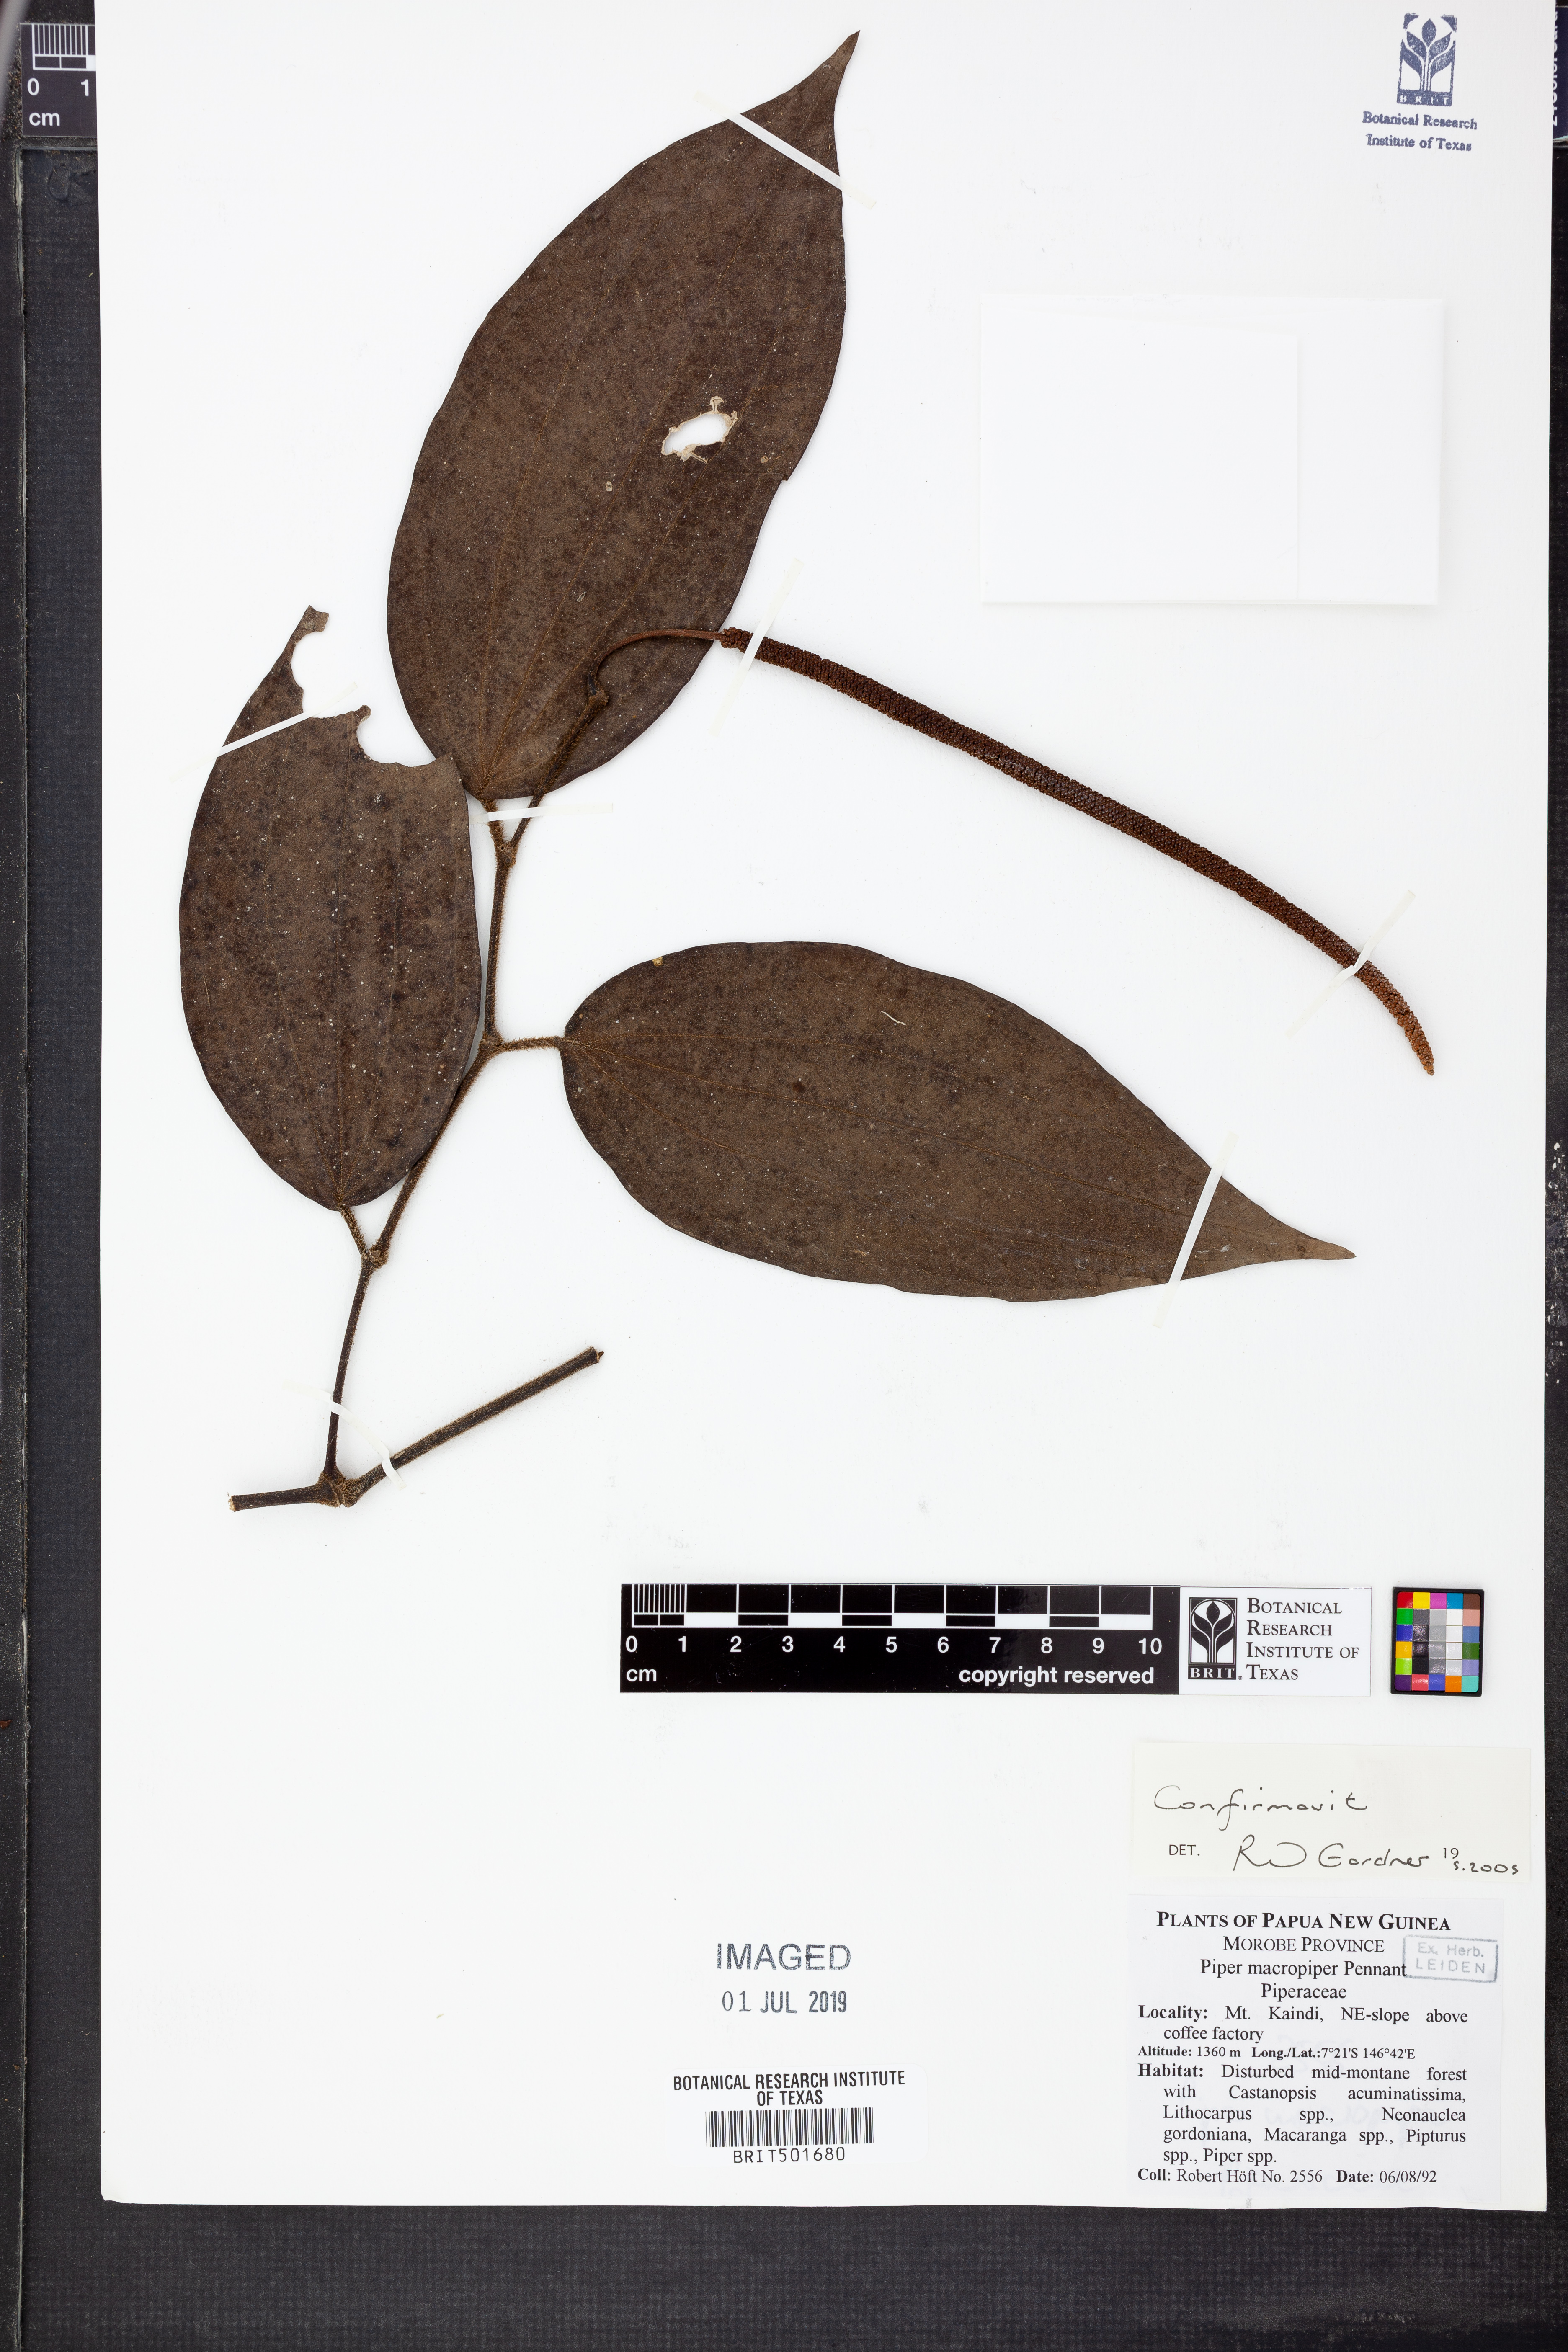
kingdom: Plantae
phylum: Tracheophyta
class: Magnoliopsida
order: Piperales
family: Piperaceae
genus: Piper
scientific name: Piper macropiper
